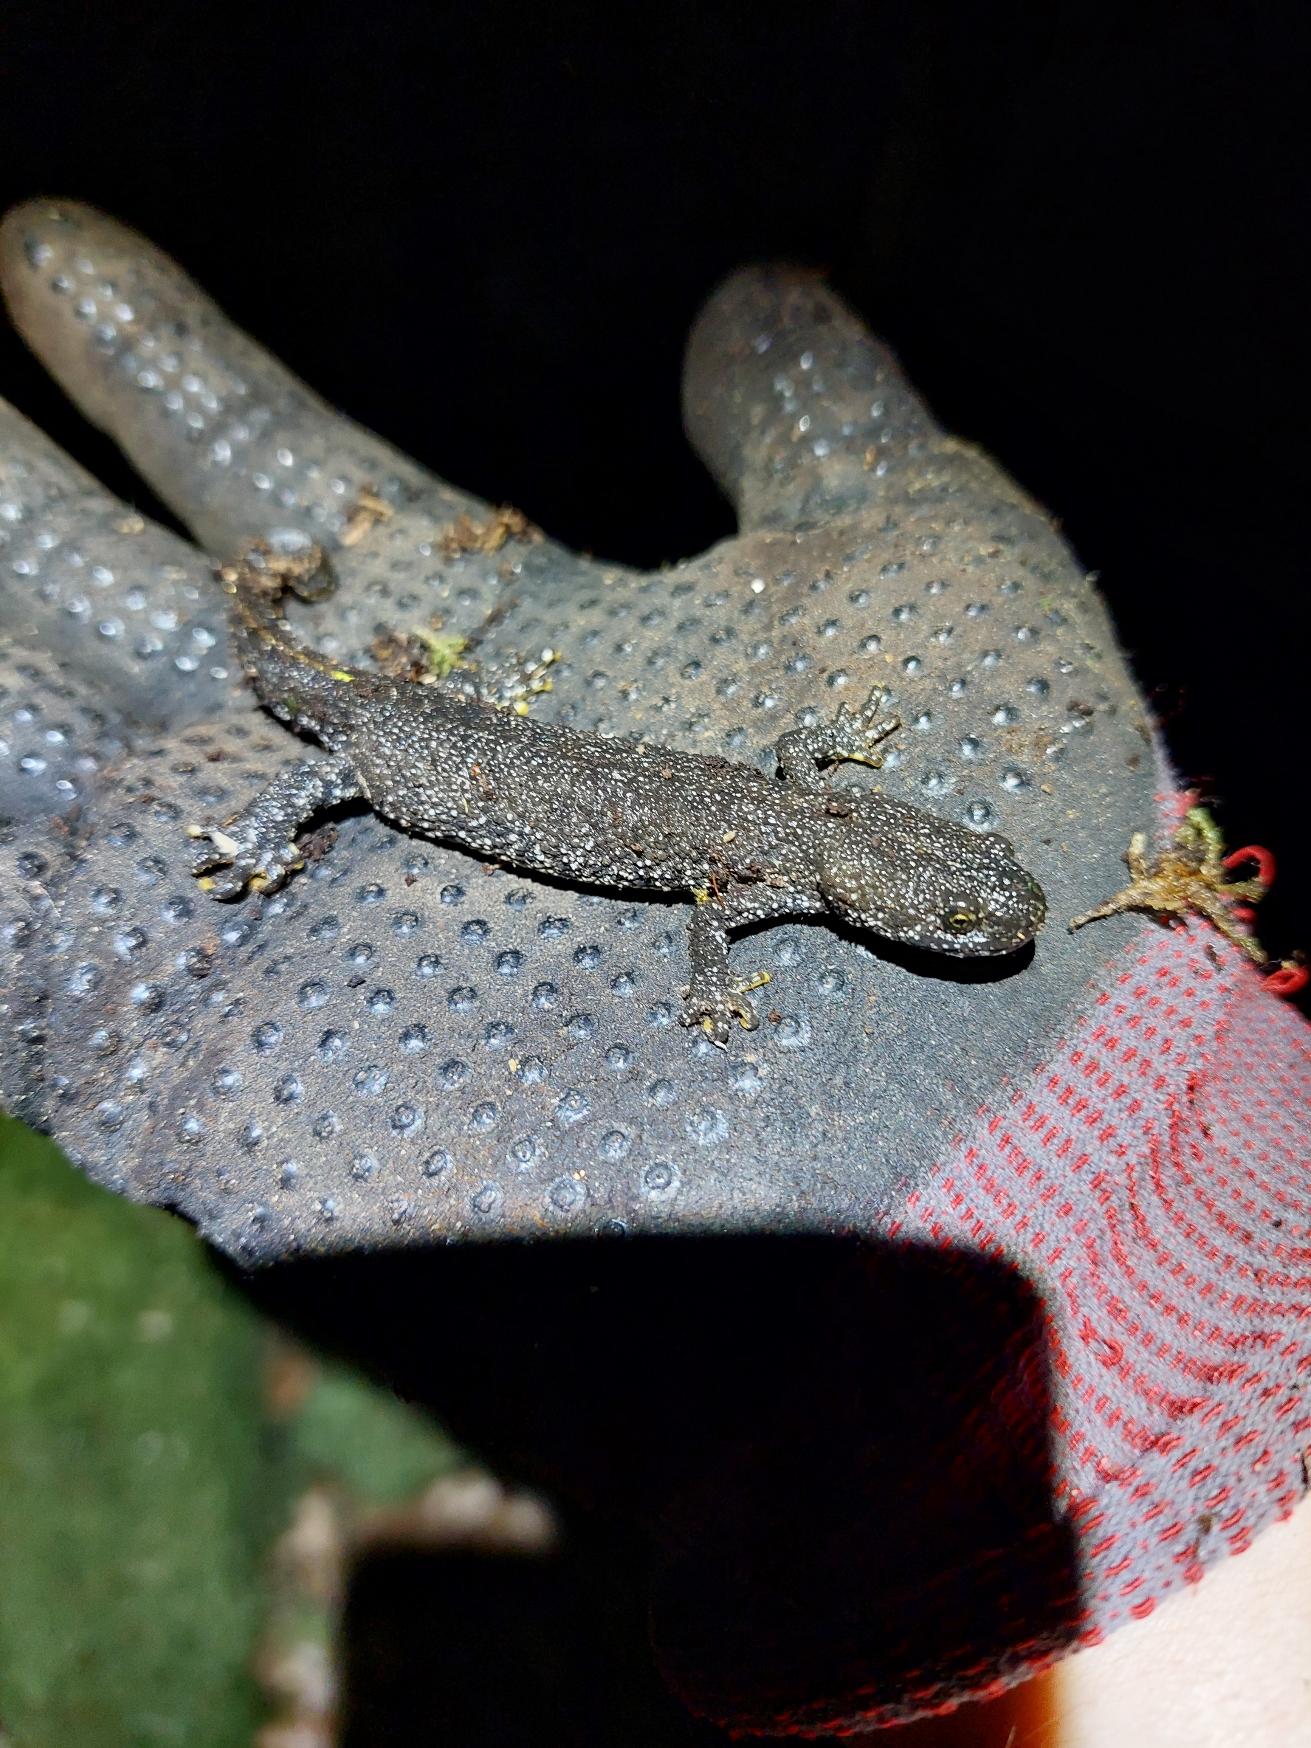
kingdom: Animalia
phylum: Chordata
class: Amphibia
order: Caudata
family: Salamandridae
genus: Triturus
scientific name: Triturus cristatus
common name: Stor vandsalamander
